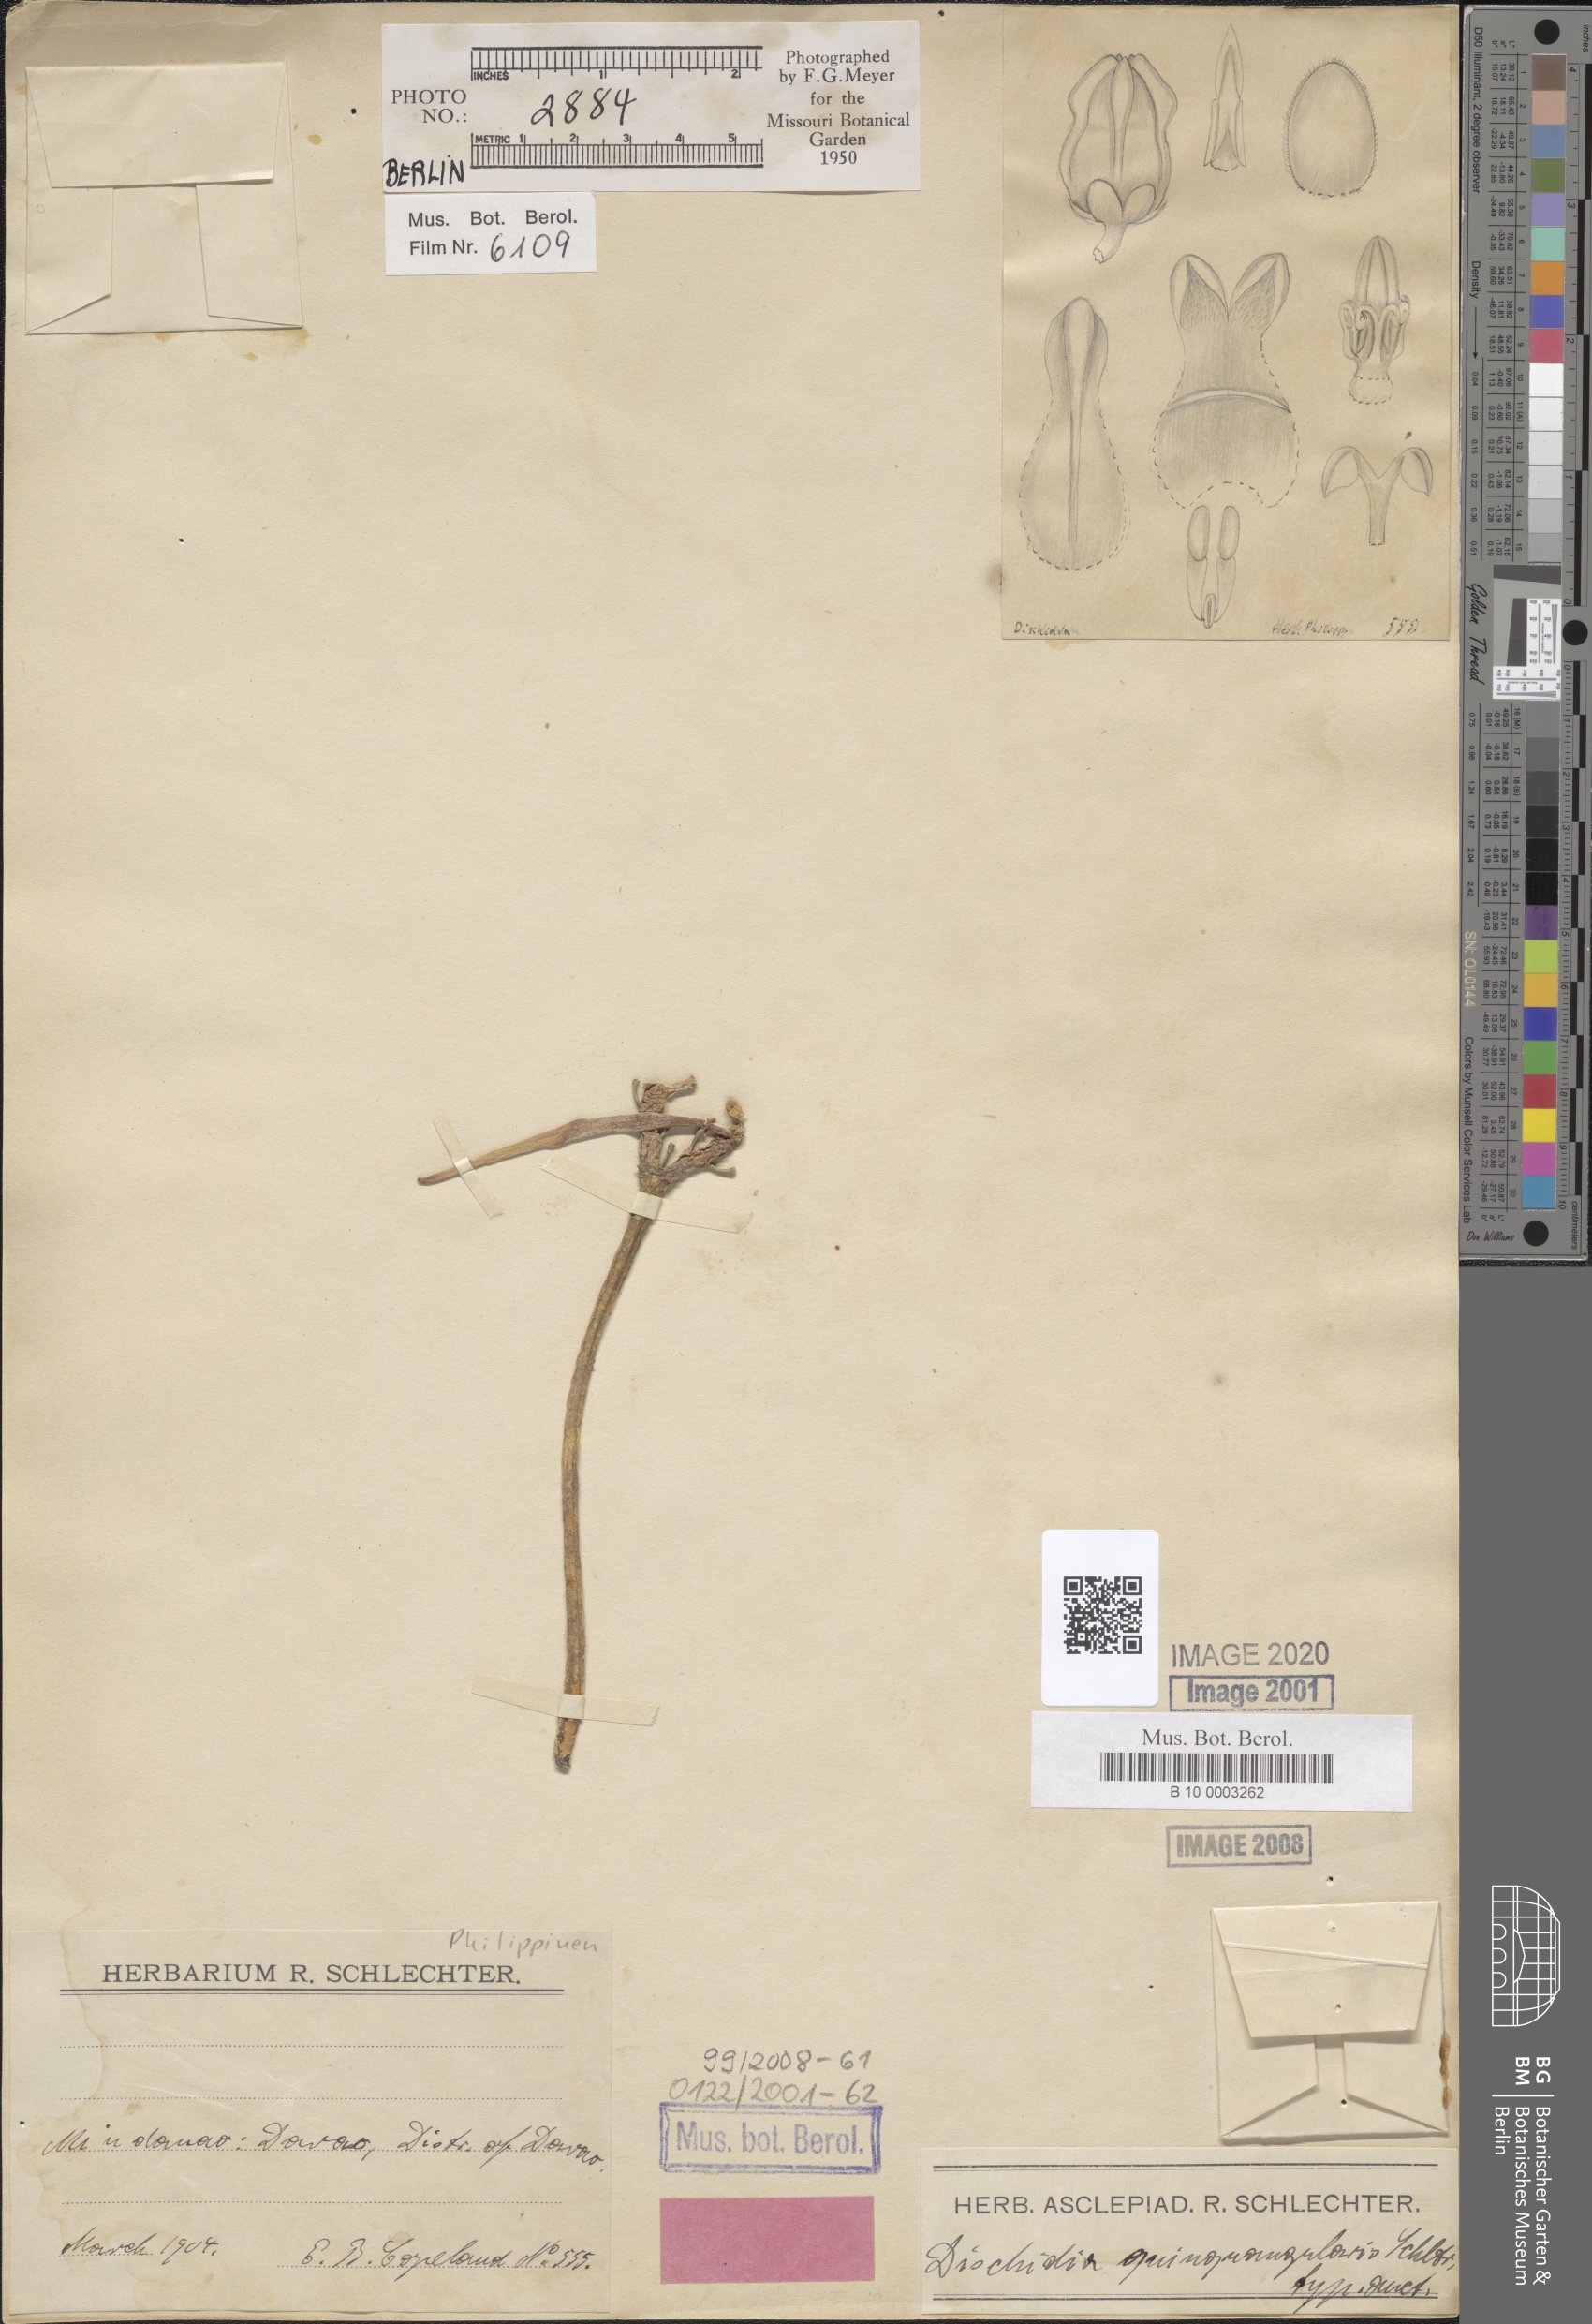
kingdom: Plantae
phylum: Tracheophyta
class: Magnoliopsida
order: Gentianales
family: Apocynaceae
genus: Dischidia
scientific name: Dischidia quinquangularis
